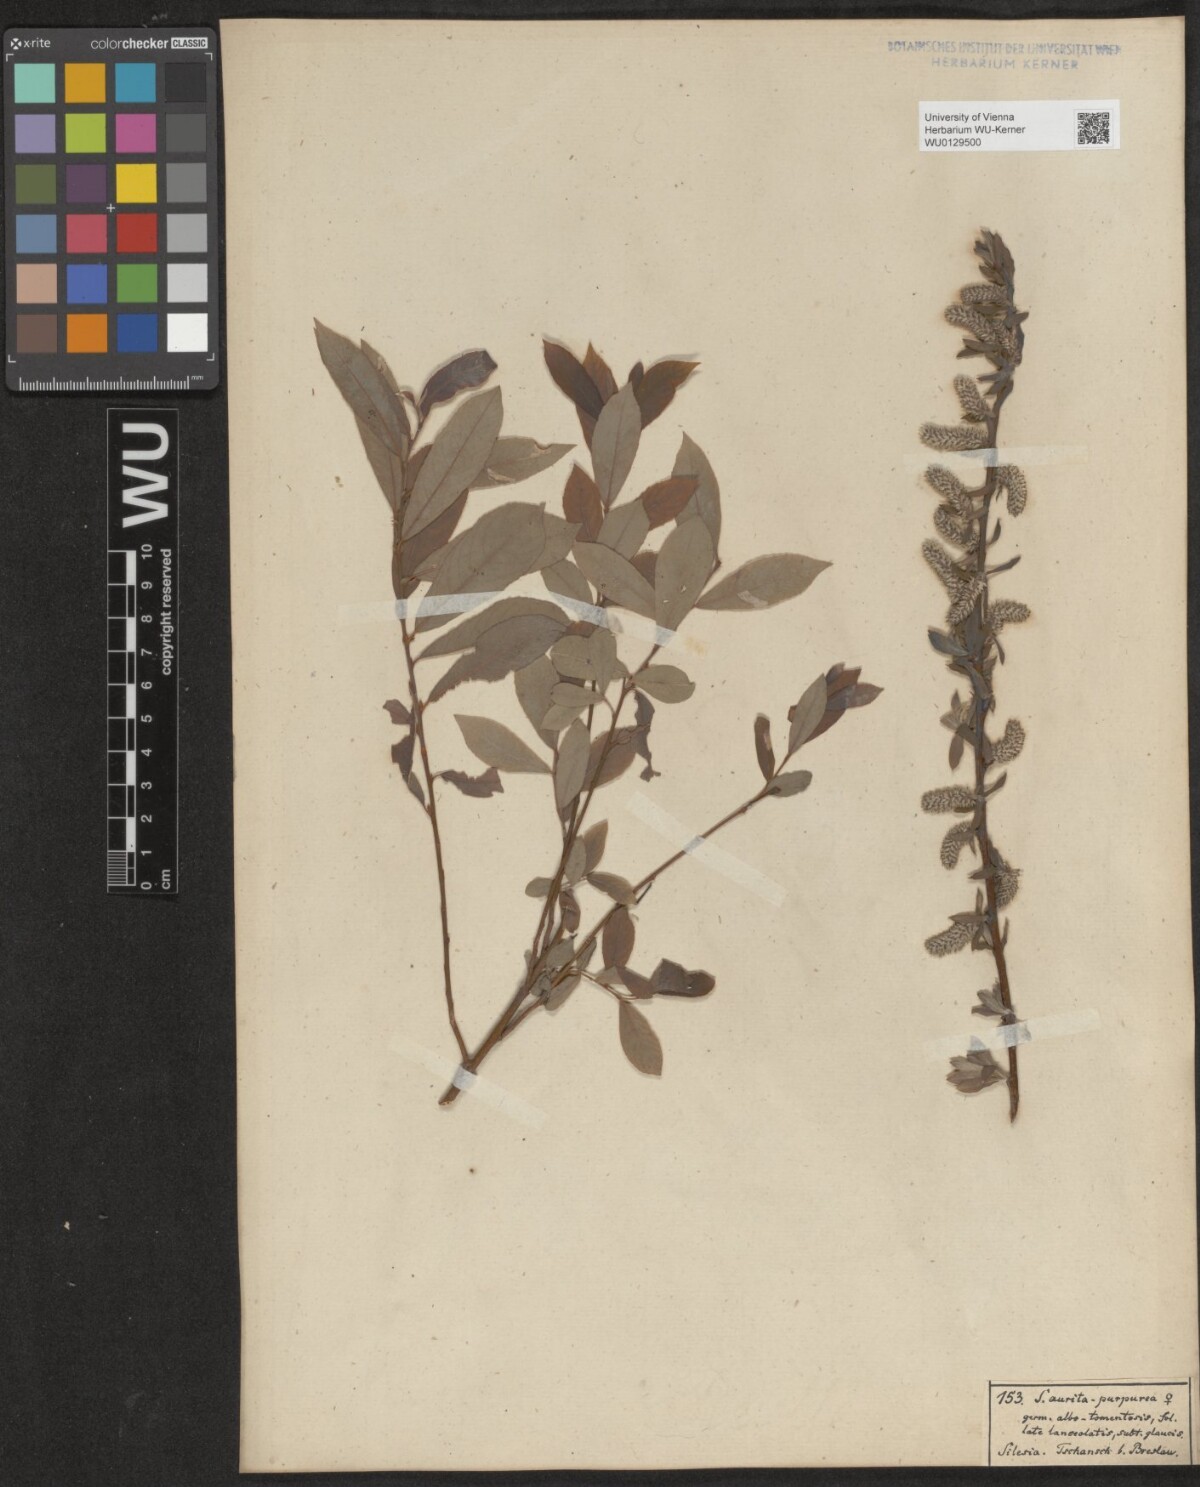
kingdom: Plantae
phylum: Tracheophyta
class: Magnoliopsida
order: Malpighiales
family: Salicaceae
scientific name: Salicaceae
